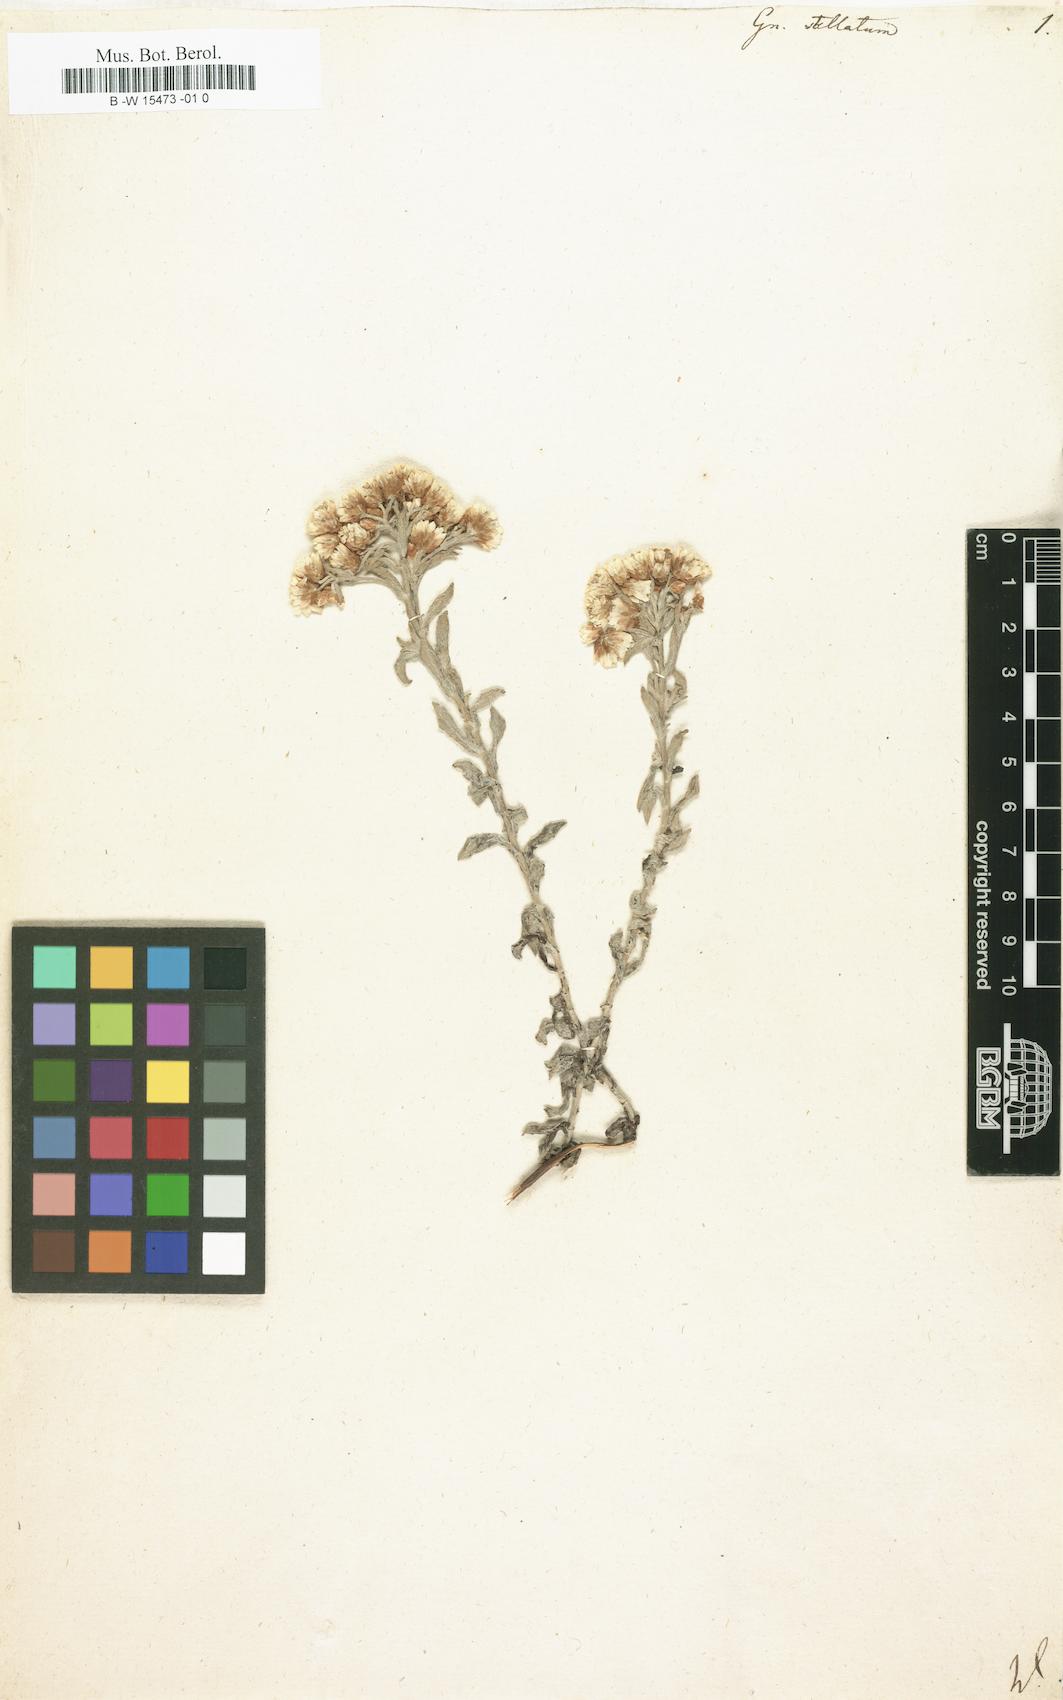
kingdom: Plantae
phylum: Tracheophyta
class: Magnoliopsida
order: Asterales
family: Asteraceae
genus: Helichrysum
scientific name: Helichrysum stellatum
